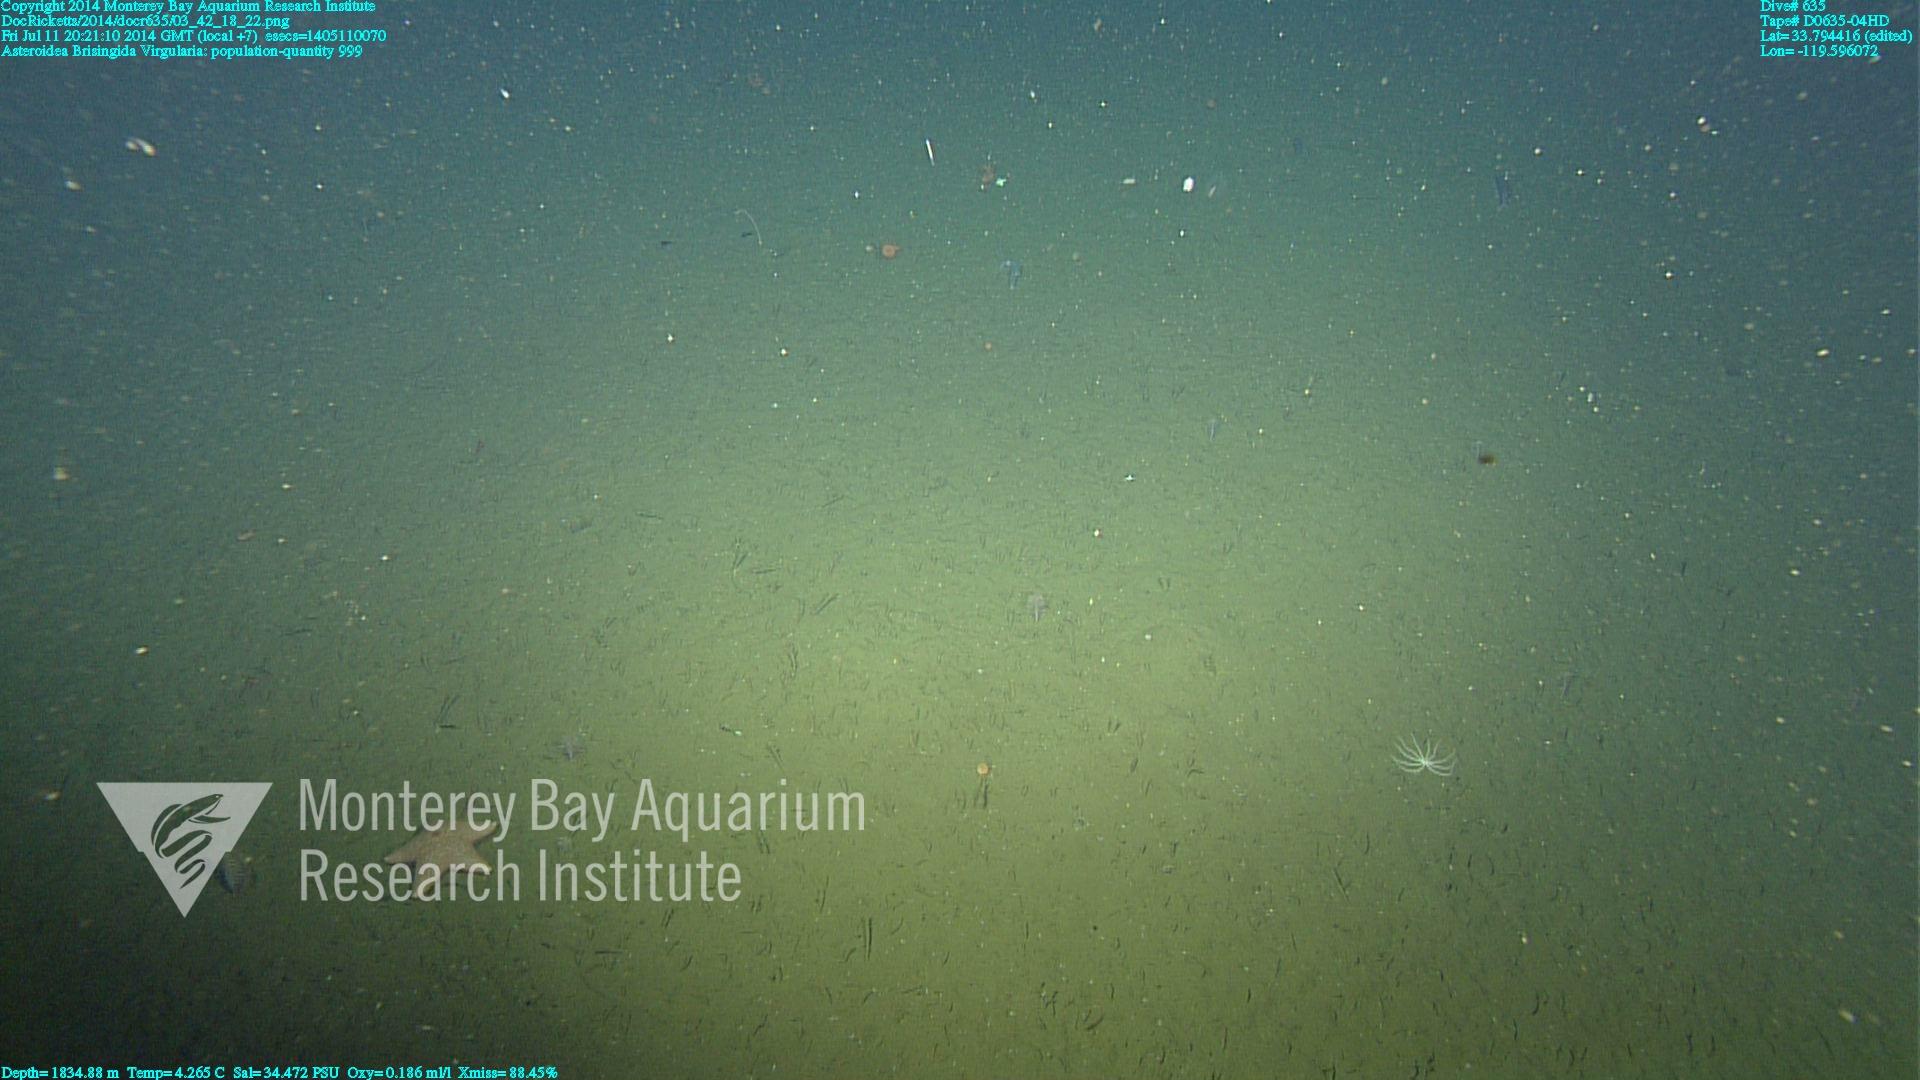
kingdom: Animalia
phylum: Cnidaria
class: Anthozoa
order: Scleralcyonacea
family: Virgulariidae
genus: Virgularia
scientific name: Virgularia
